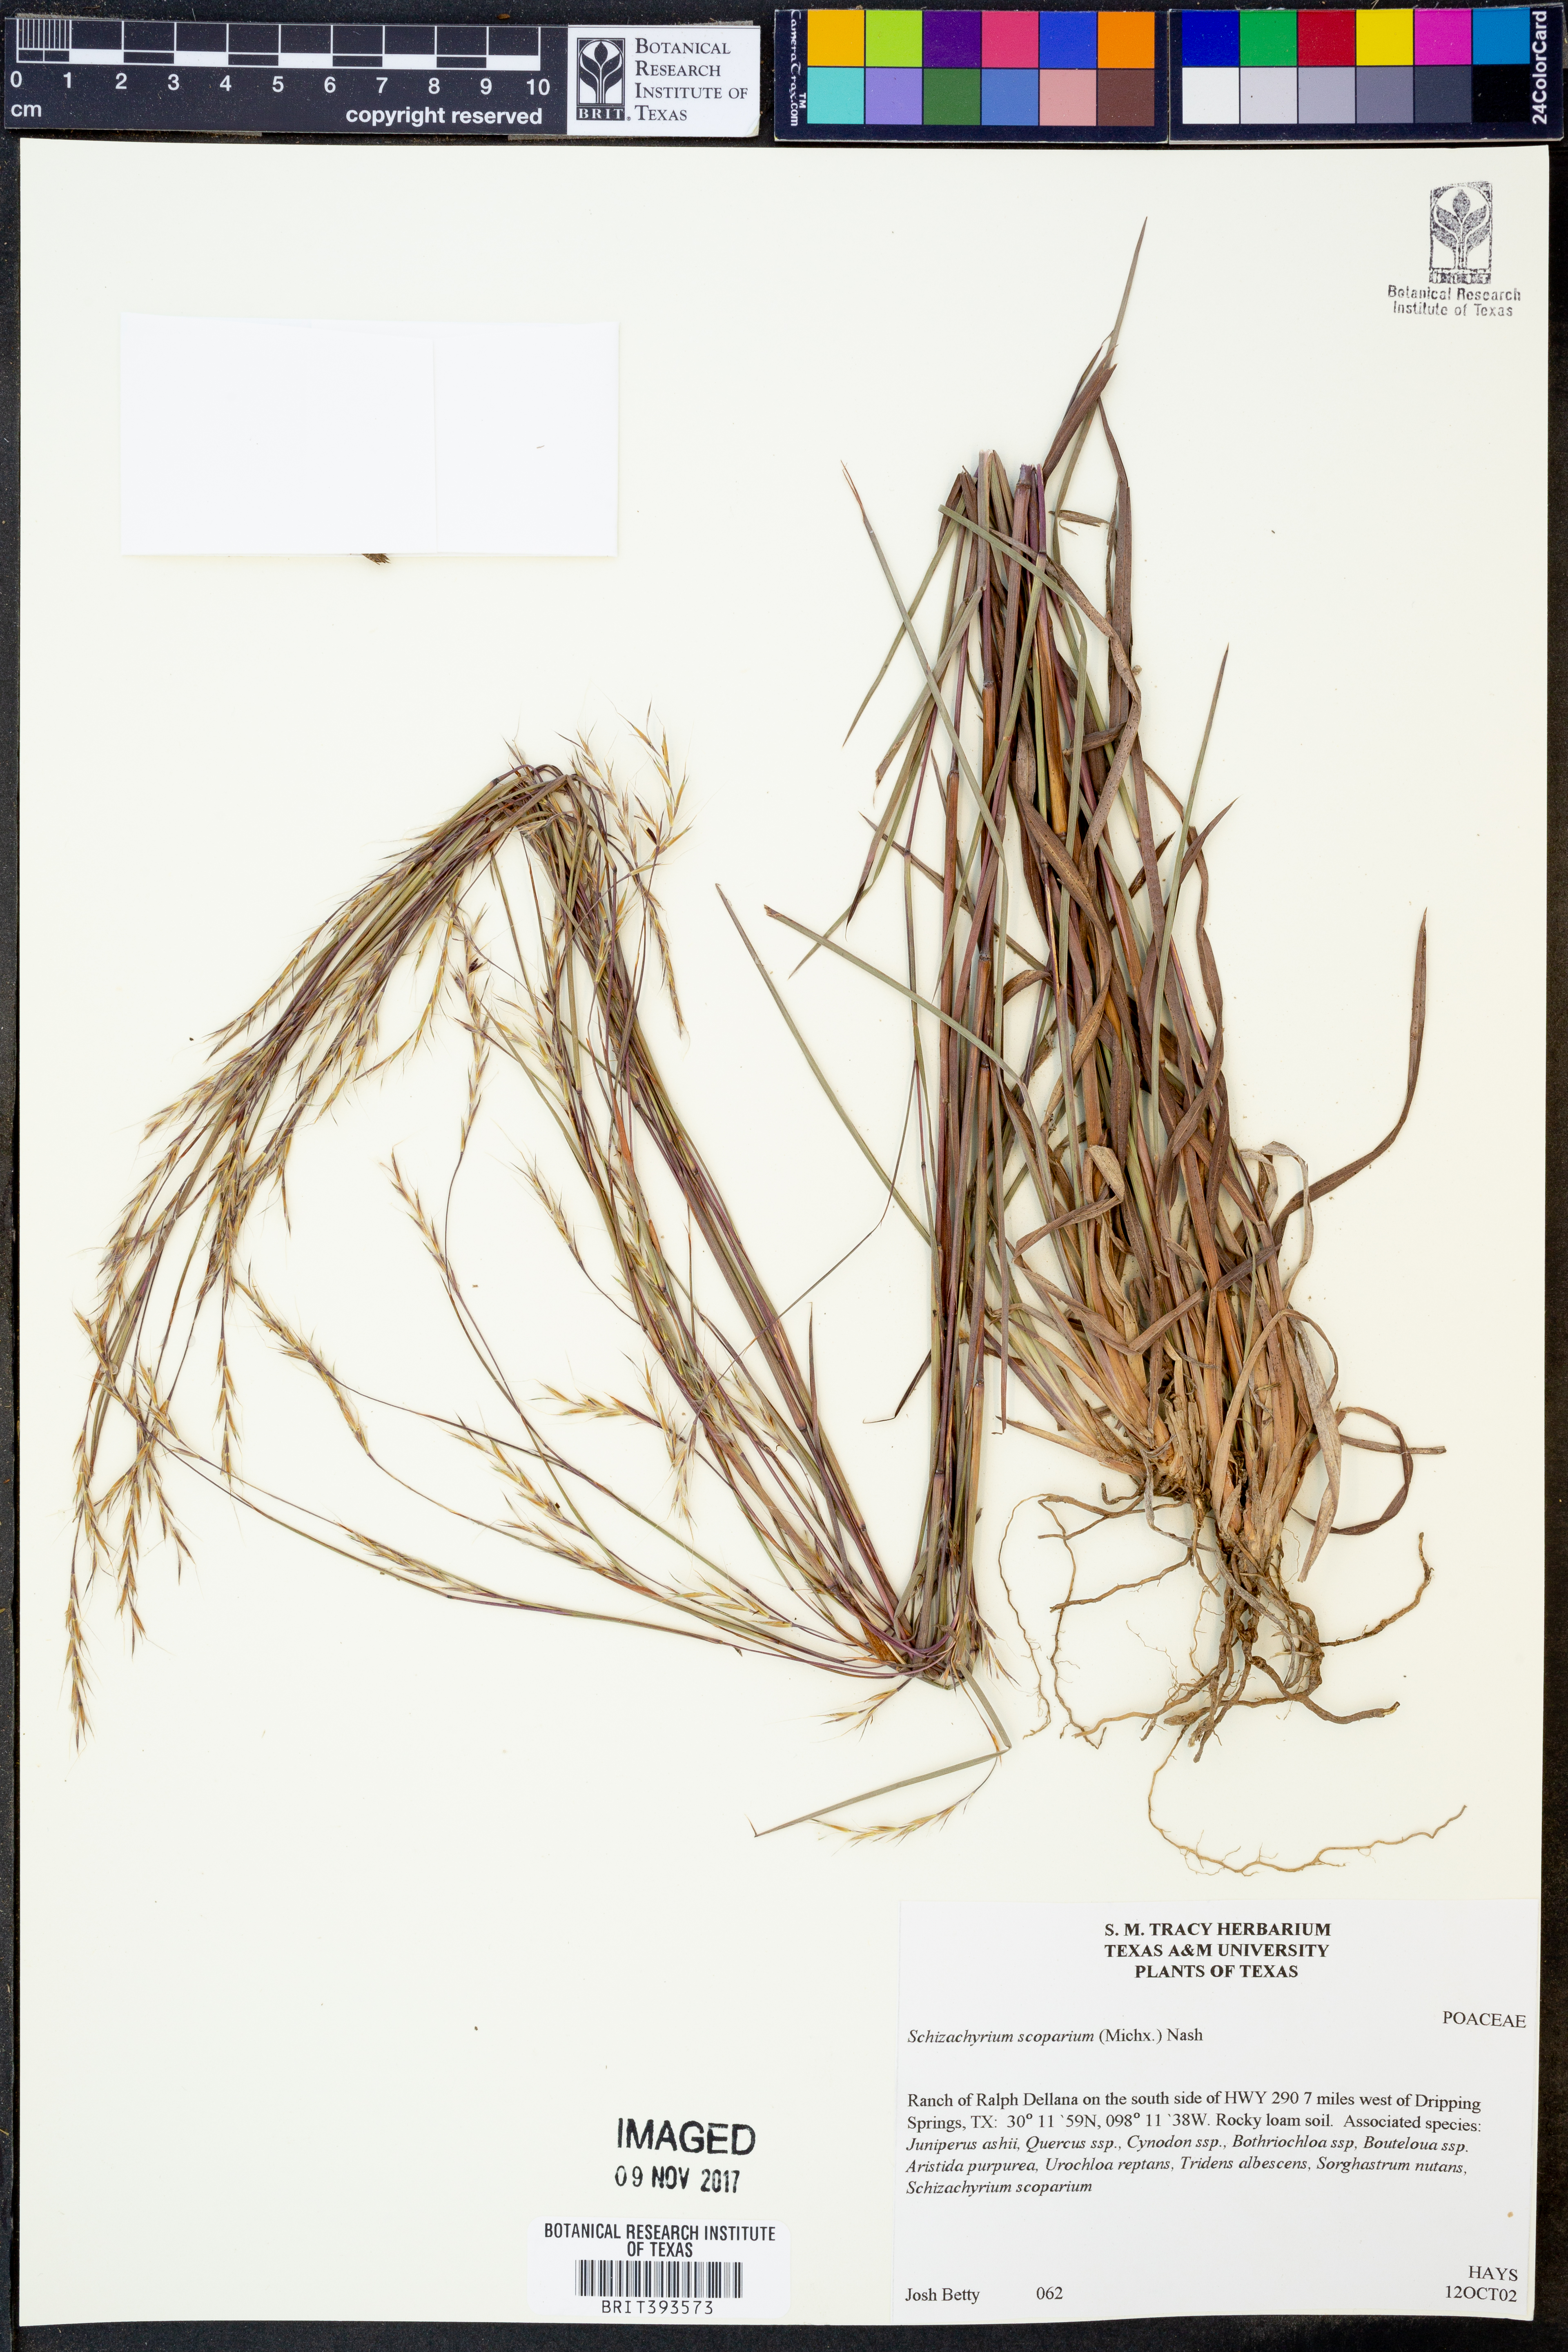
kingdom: Plantae
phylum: Tracheophyta
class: Liliopsida
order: Poales
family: Poaceae
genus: Schizachyrium
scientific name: Schizachyrium scoparium
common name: Little bluestem
